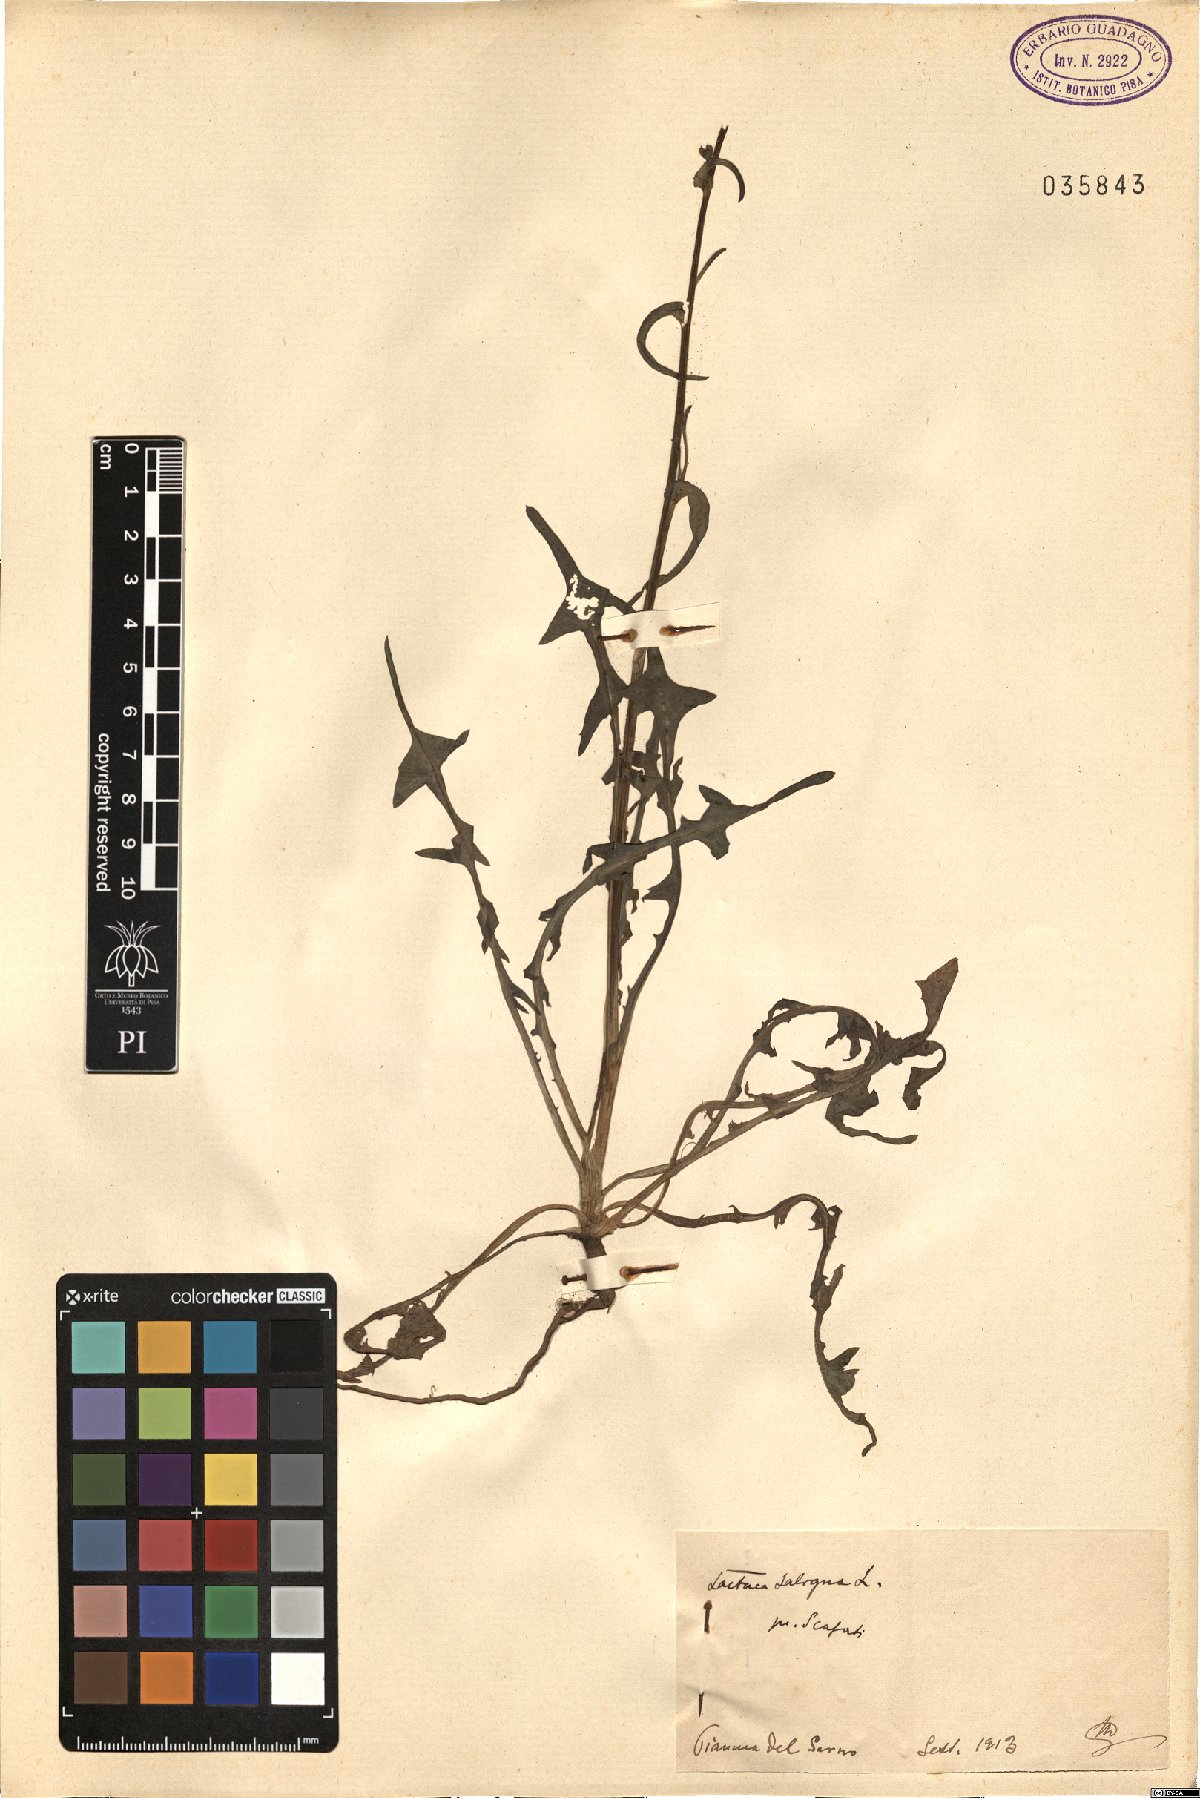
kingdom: Plantae
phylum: Tracheophyta
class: Magnoliopsida
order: Asterales
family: Asteraceae
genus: Lactuca
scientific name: Lactuca saligna
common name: Wild lettuce
